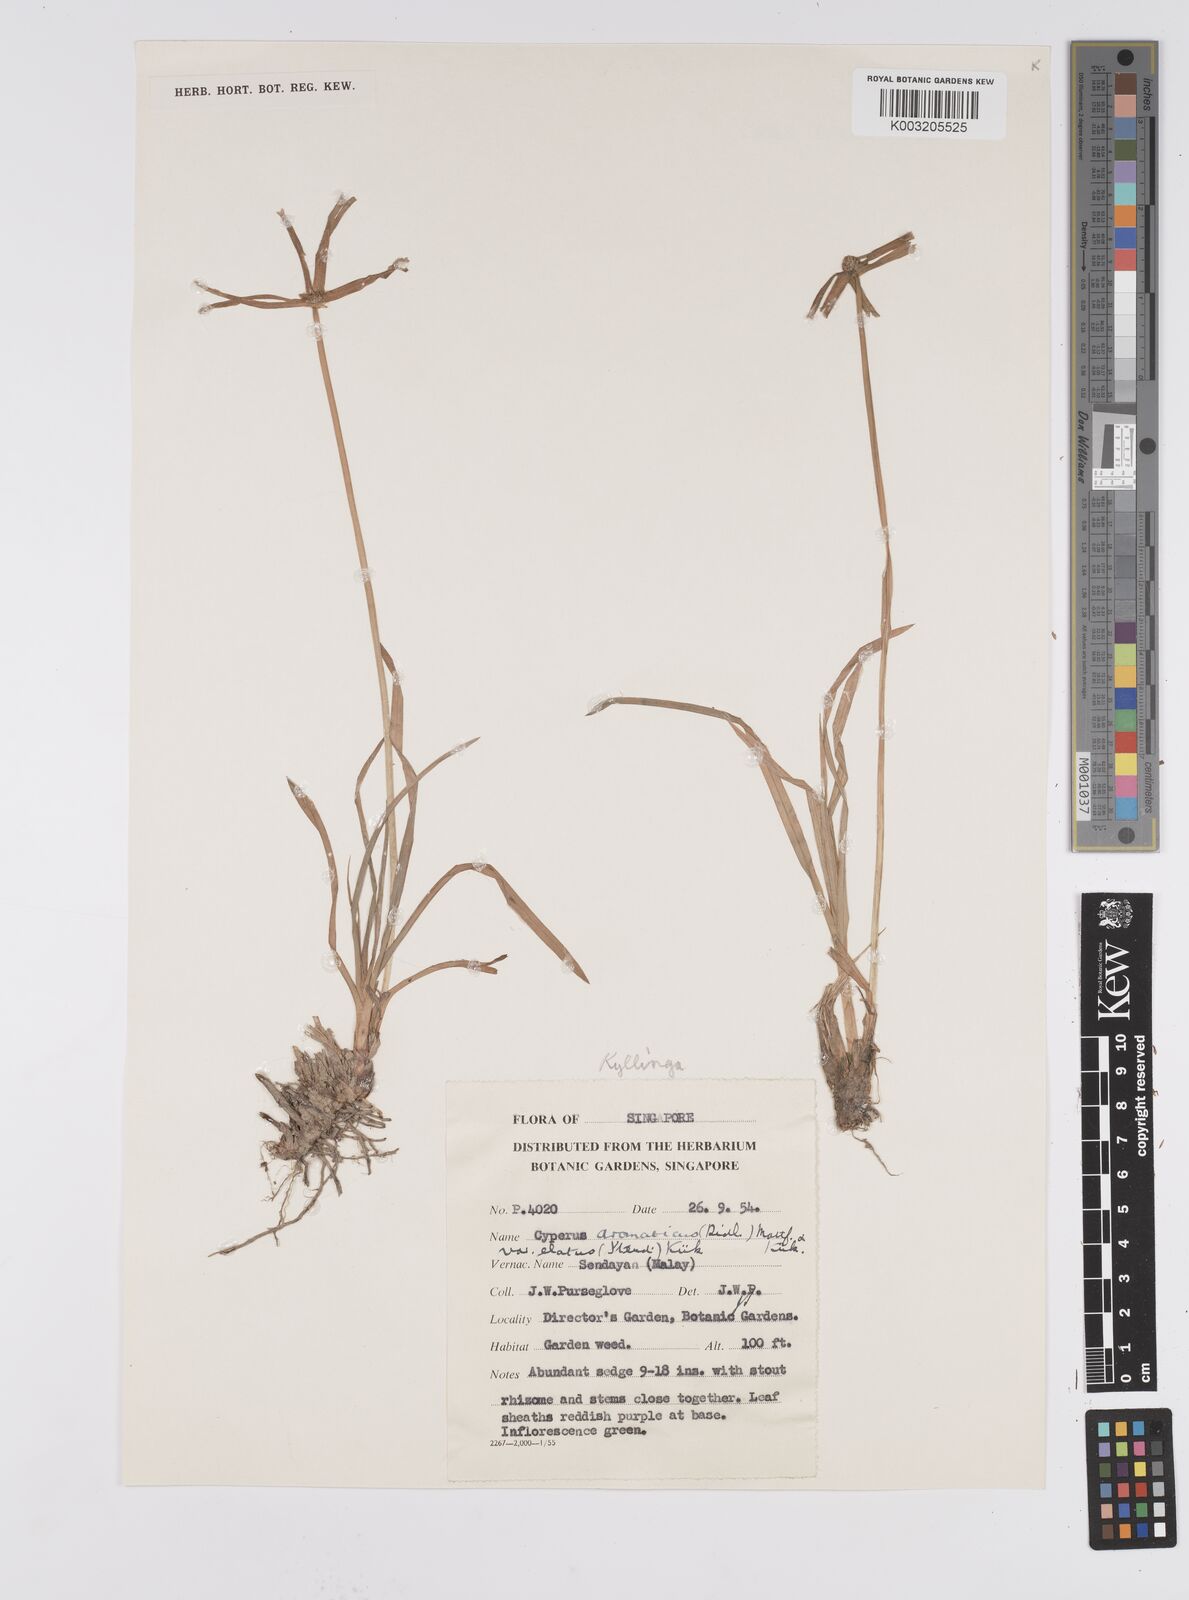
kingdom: Plantae
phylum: Tracheophyta
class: Liliopsida
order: Poales
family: Cyperaceae
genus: Cyperus
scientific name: Cyperus
